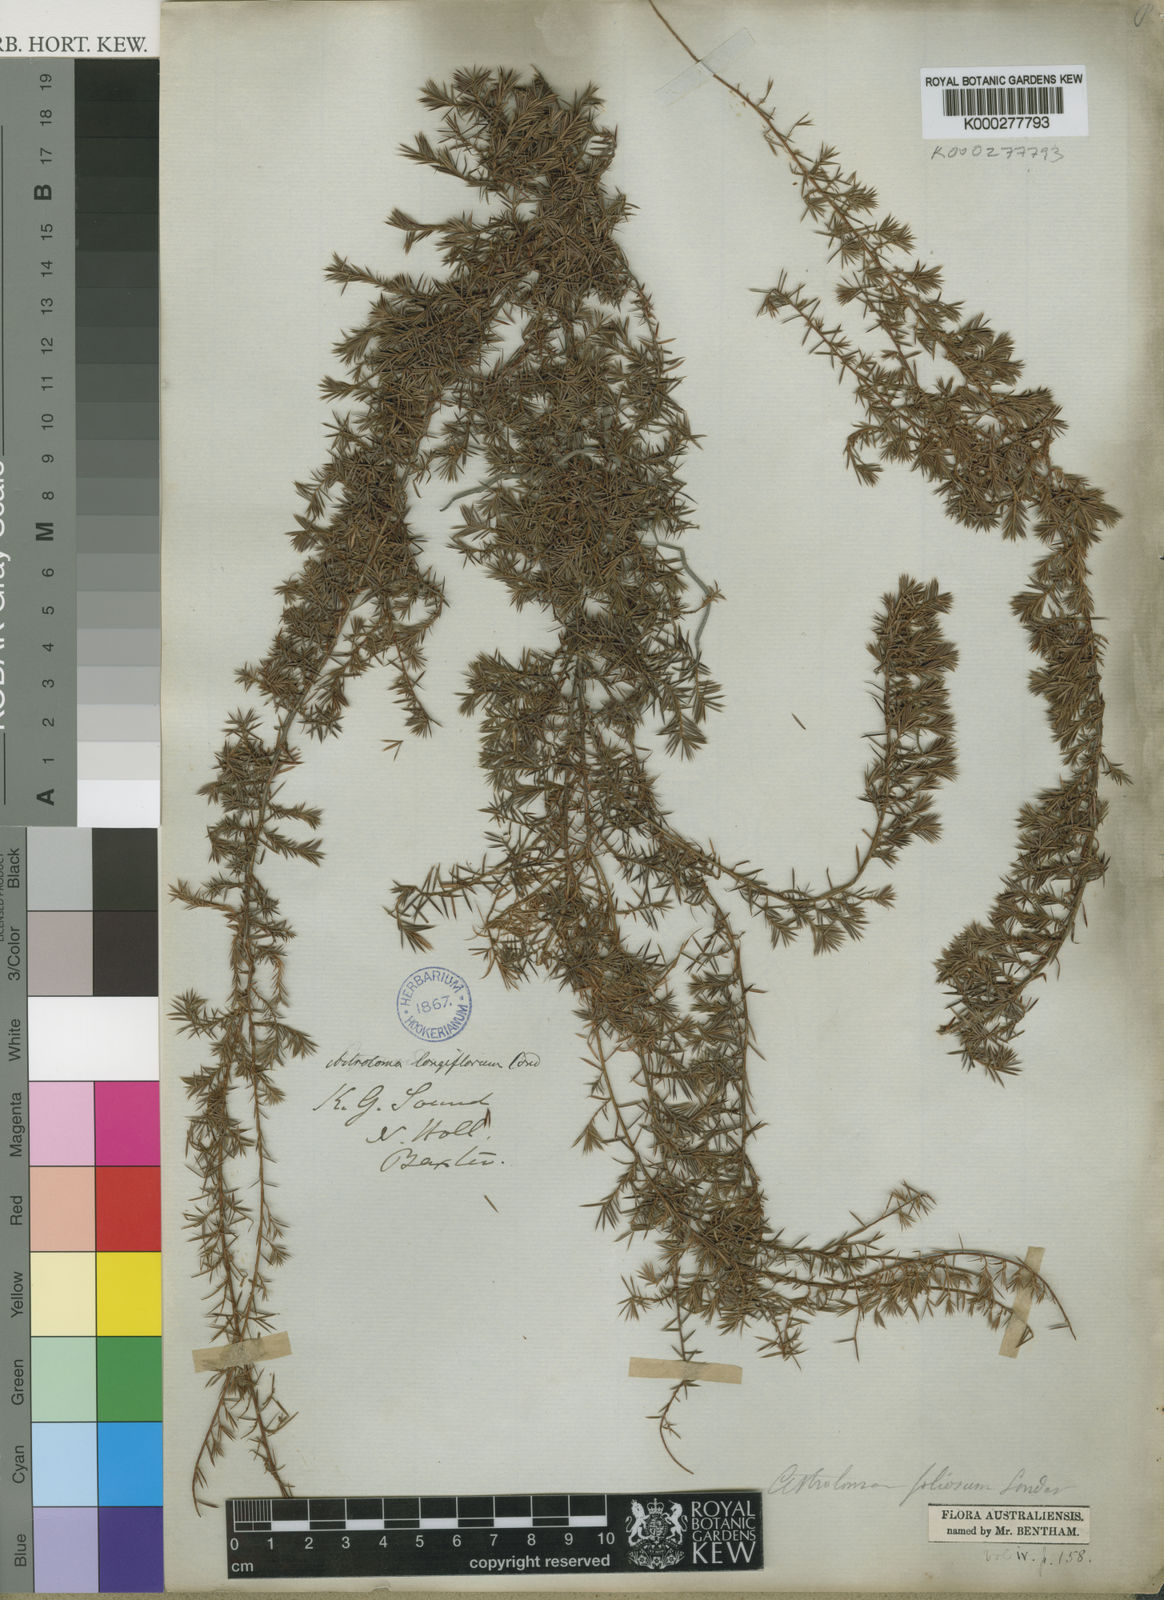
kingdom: Plantae
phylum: Tracheophyta
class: Magnoliopsida
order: Ericales
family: Ericaceae
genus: Styphelia
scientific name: Styphelia discolor
